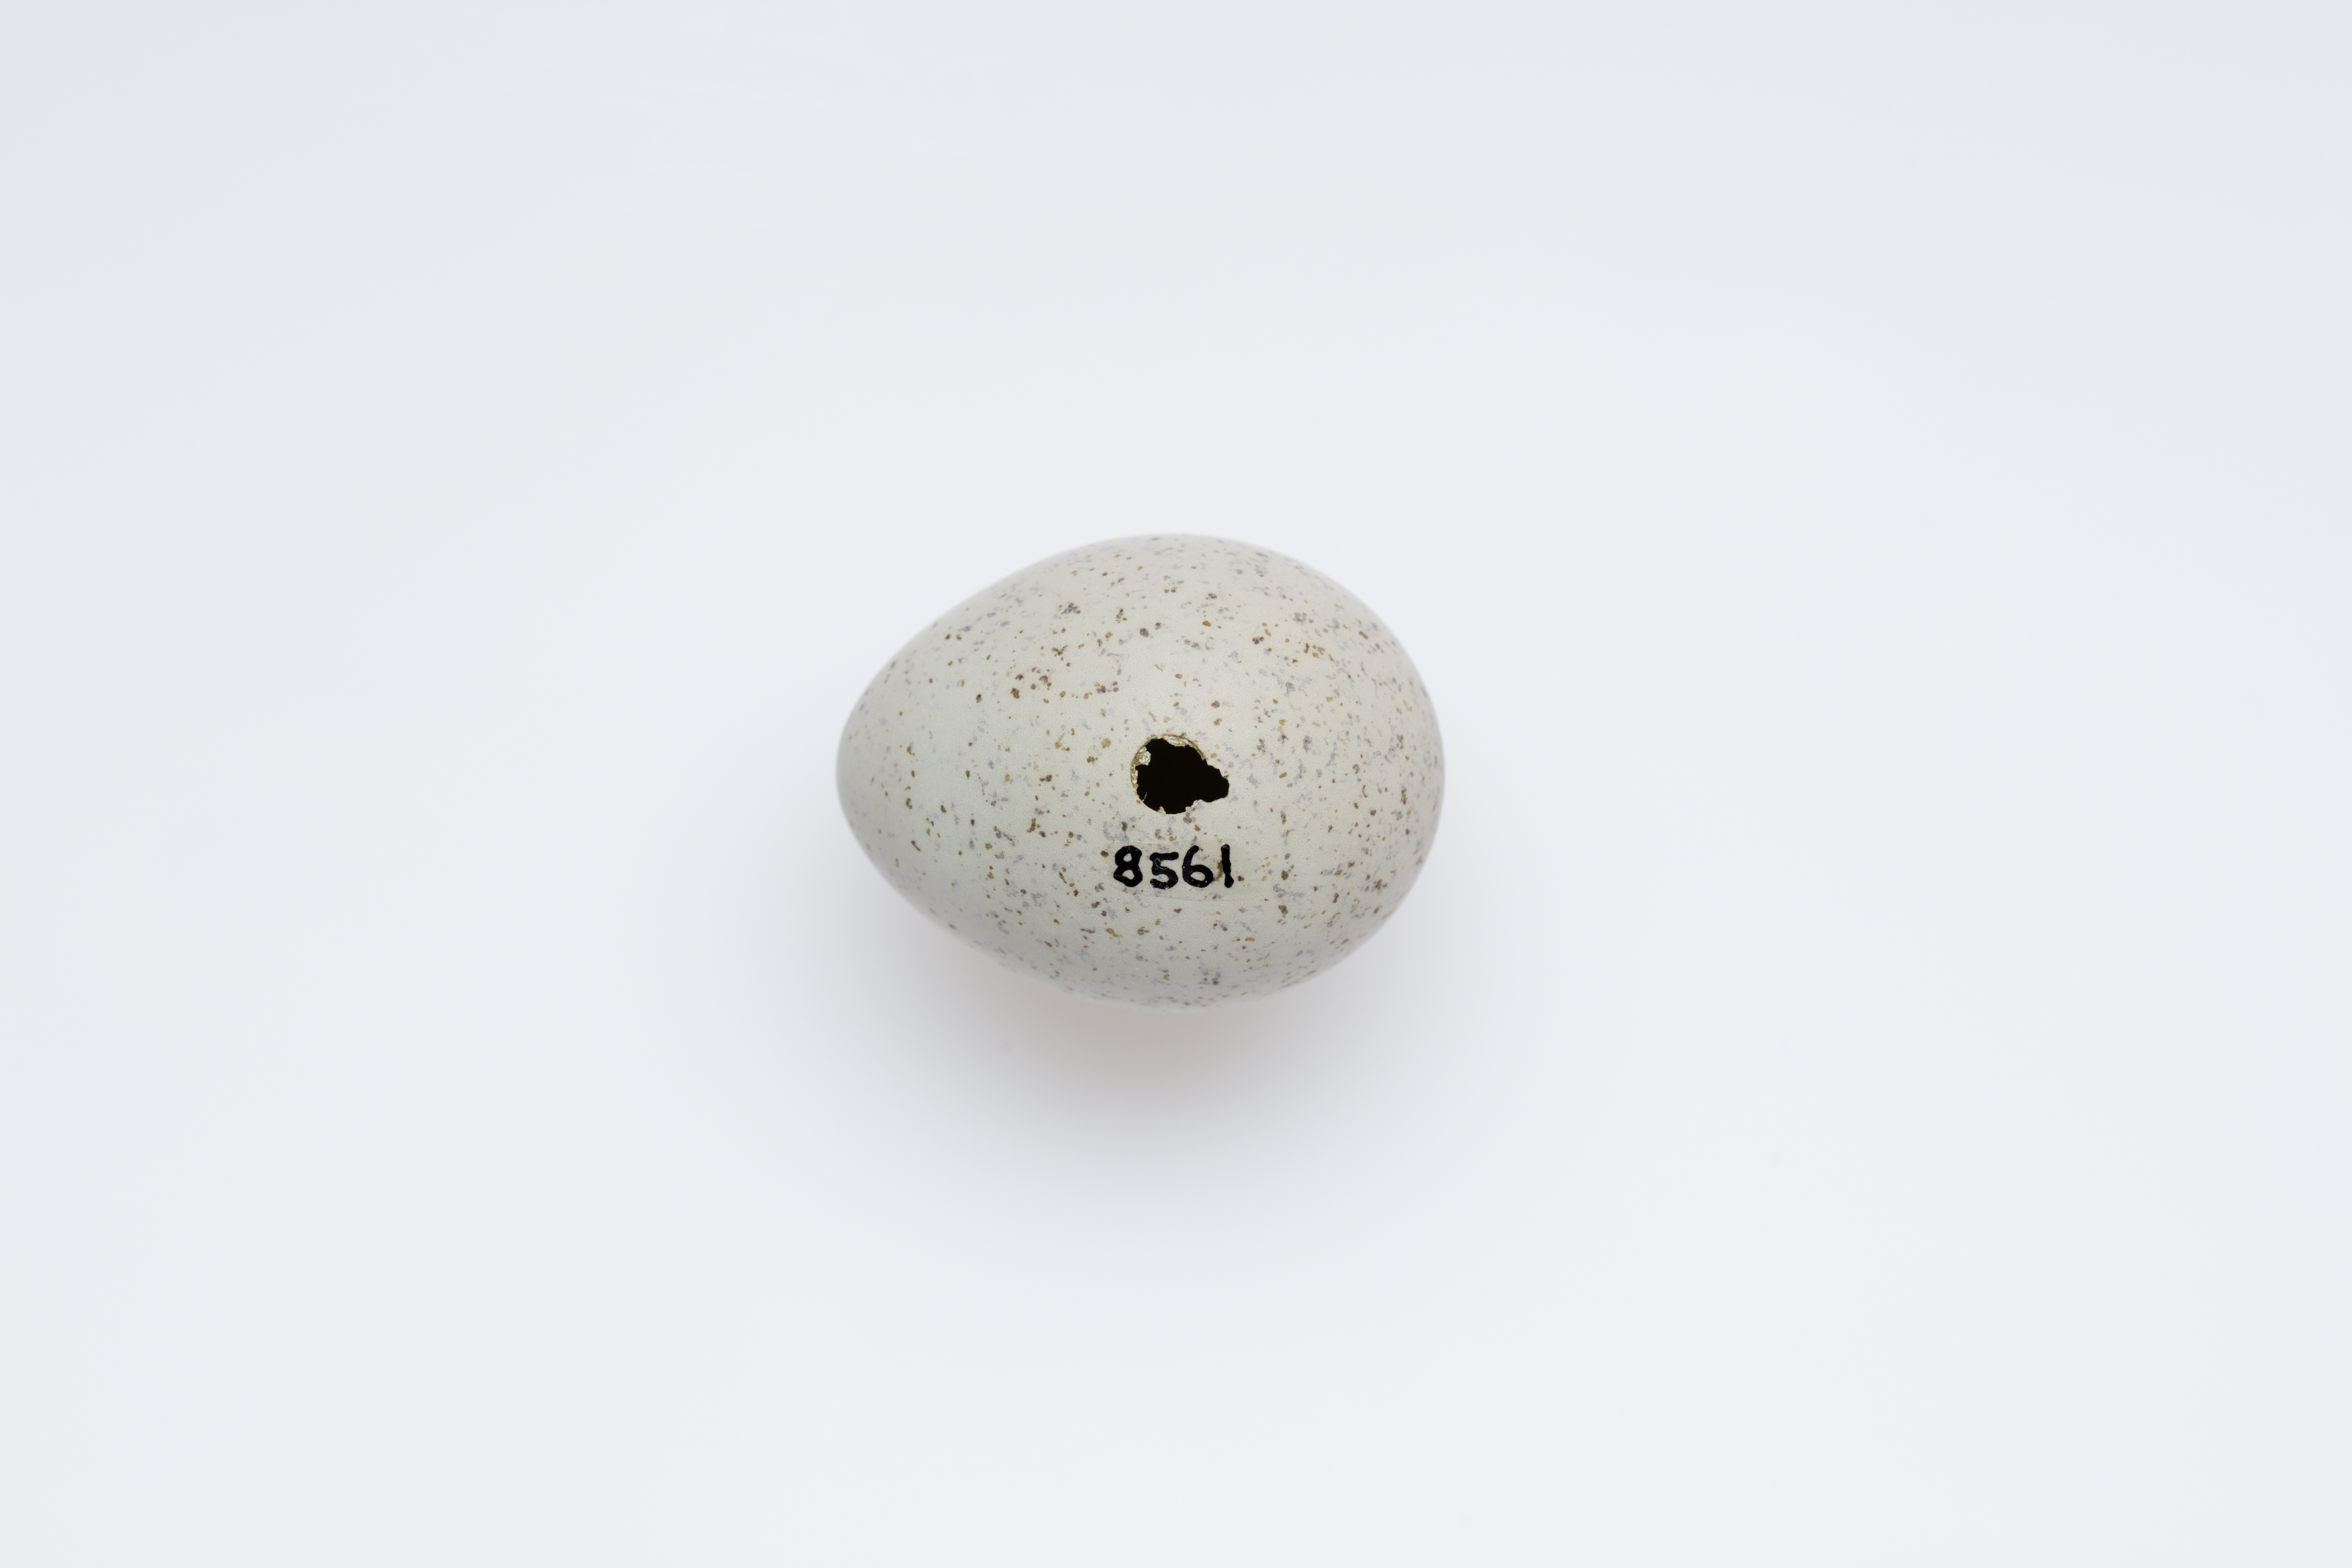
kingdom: Animalia
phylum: Chordata
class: Aves
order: Charadriiformes
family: Charadriidae
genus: Charadrius
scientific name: Charadrius frontalis
